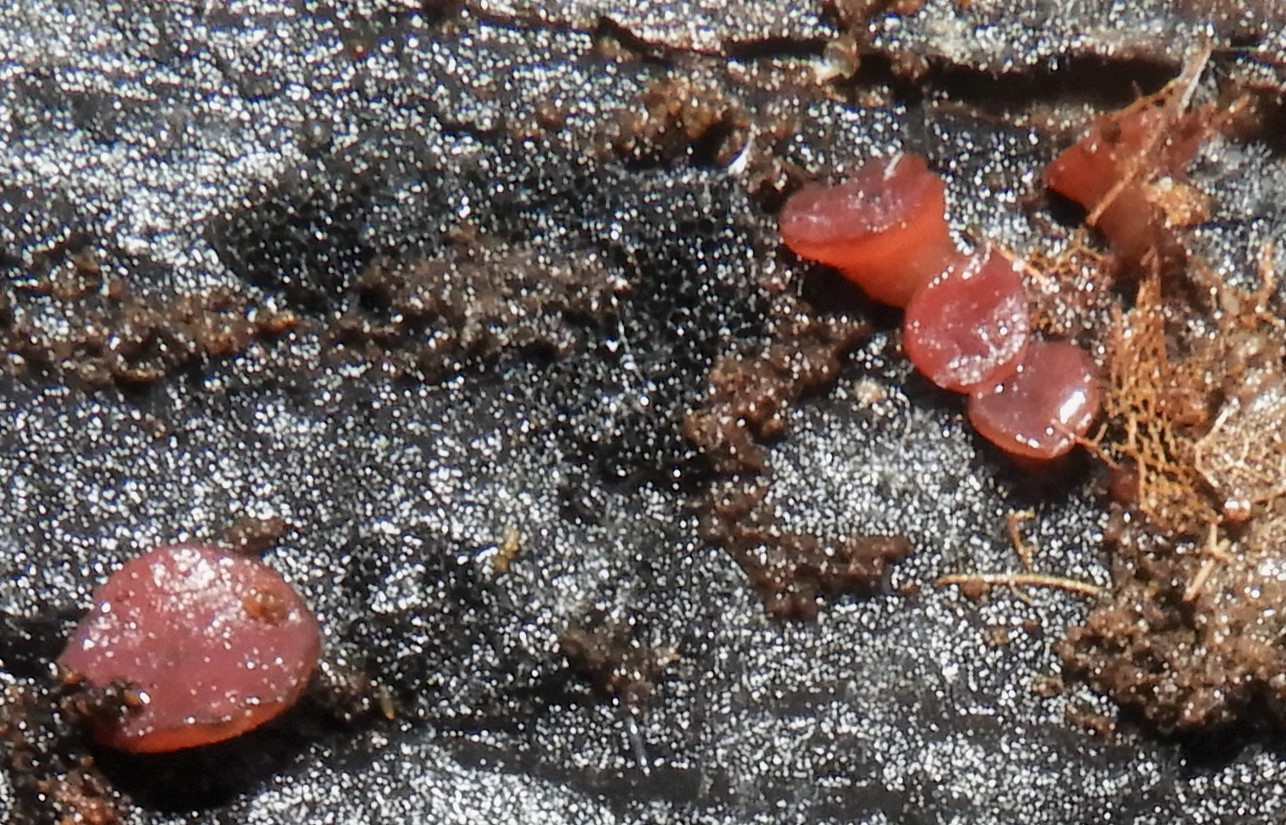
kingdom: Fungi
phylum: Ascomycota
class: Leotiomycetes
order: Helotiales
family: Gelatinodiscaceae
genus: Ascocoryne
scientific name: Ascocoryne
